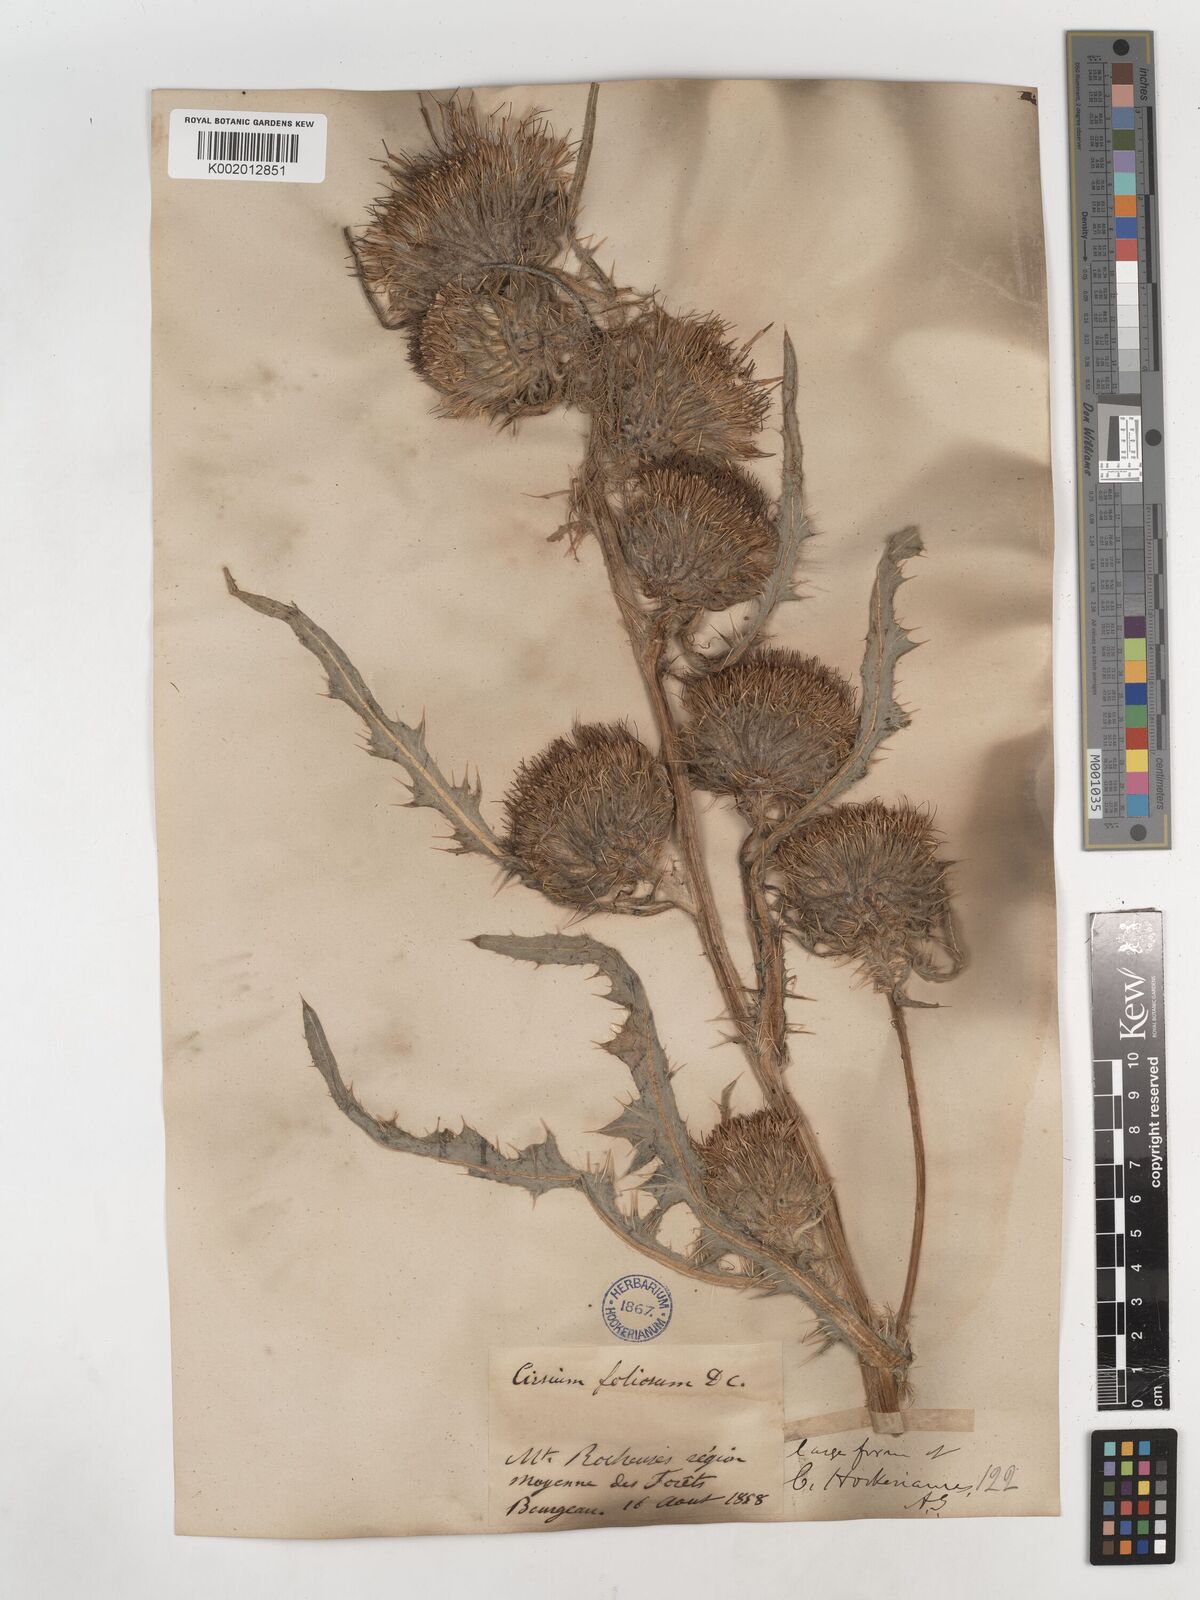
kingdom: Plantae
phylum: Tracheophyta
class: Magnoliopsida
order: Asterales
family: Asteraceae
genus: Cirsium
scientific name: Cirsium hookerianum
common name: Hooker's thistle
